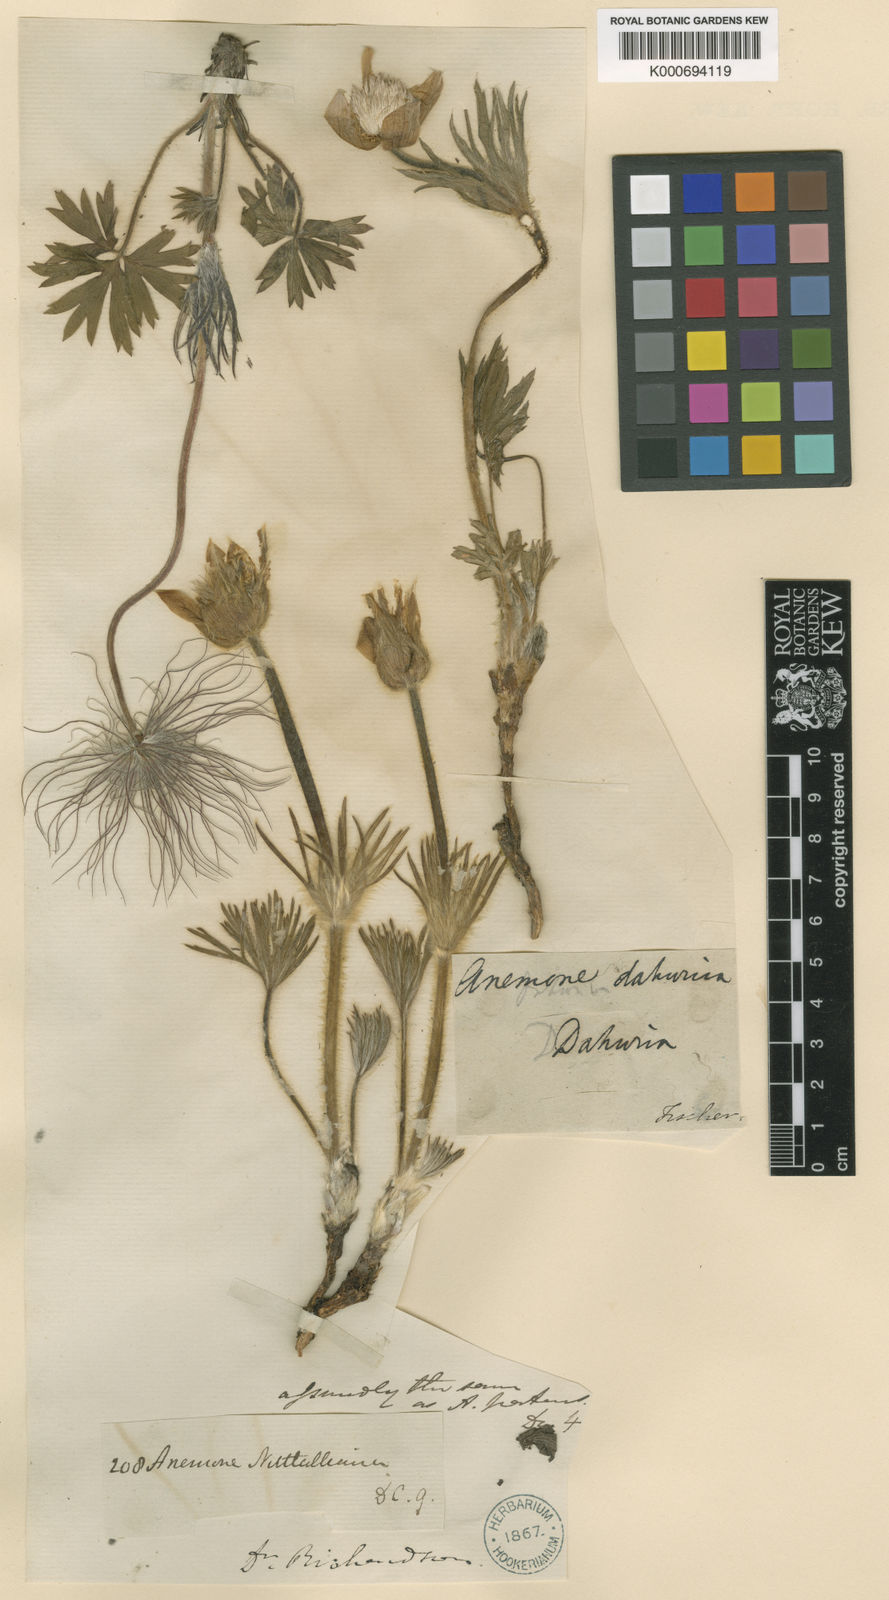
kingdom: Plantae
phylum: Tracheophyta
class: Magnoliopsida
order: Ranunculales
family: Ranunculaceae
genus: Pulsatilla
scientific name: Pulsatilla dahurica
